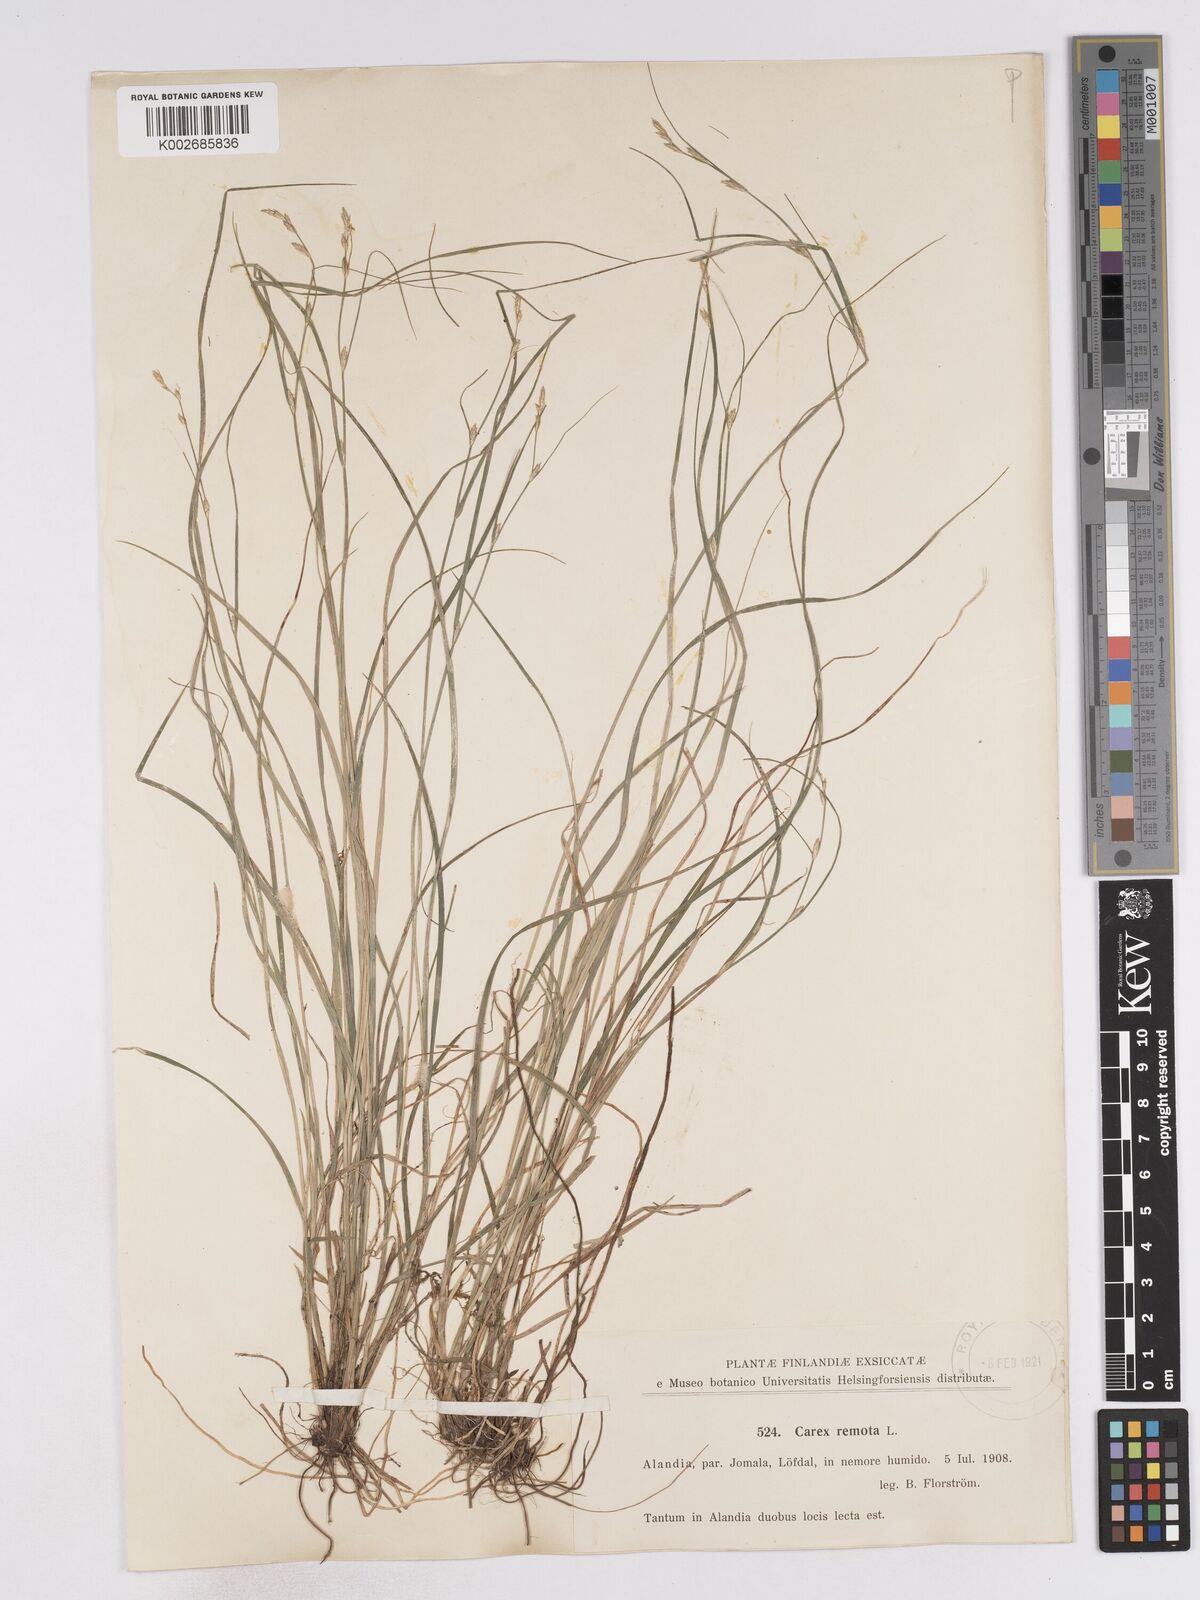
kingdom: Plantae
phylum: Tracheophyta
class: Liliopsida
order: Poales
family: Cyperaceae
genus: Carex
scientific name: Carex remota
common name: Remote sedge
